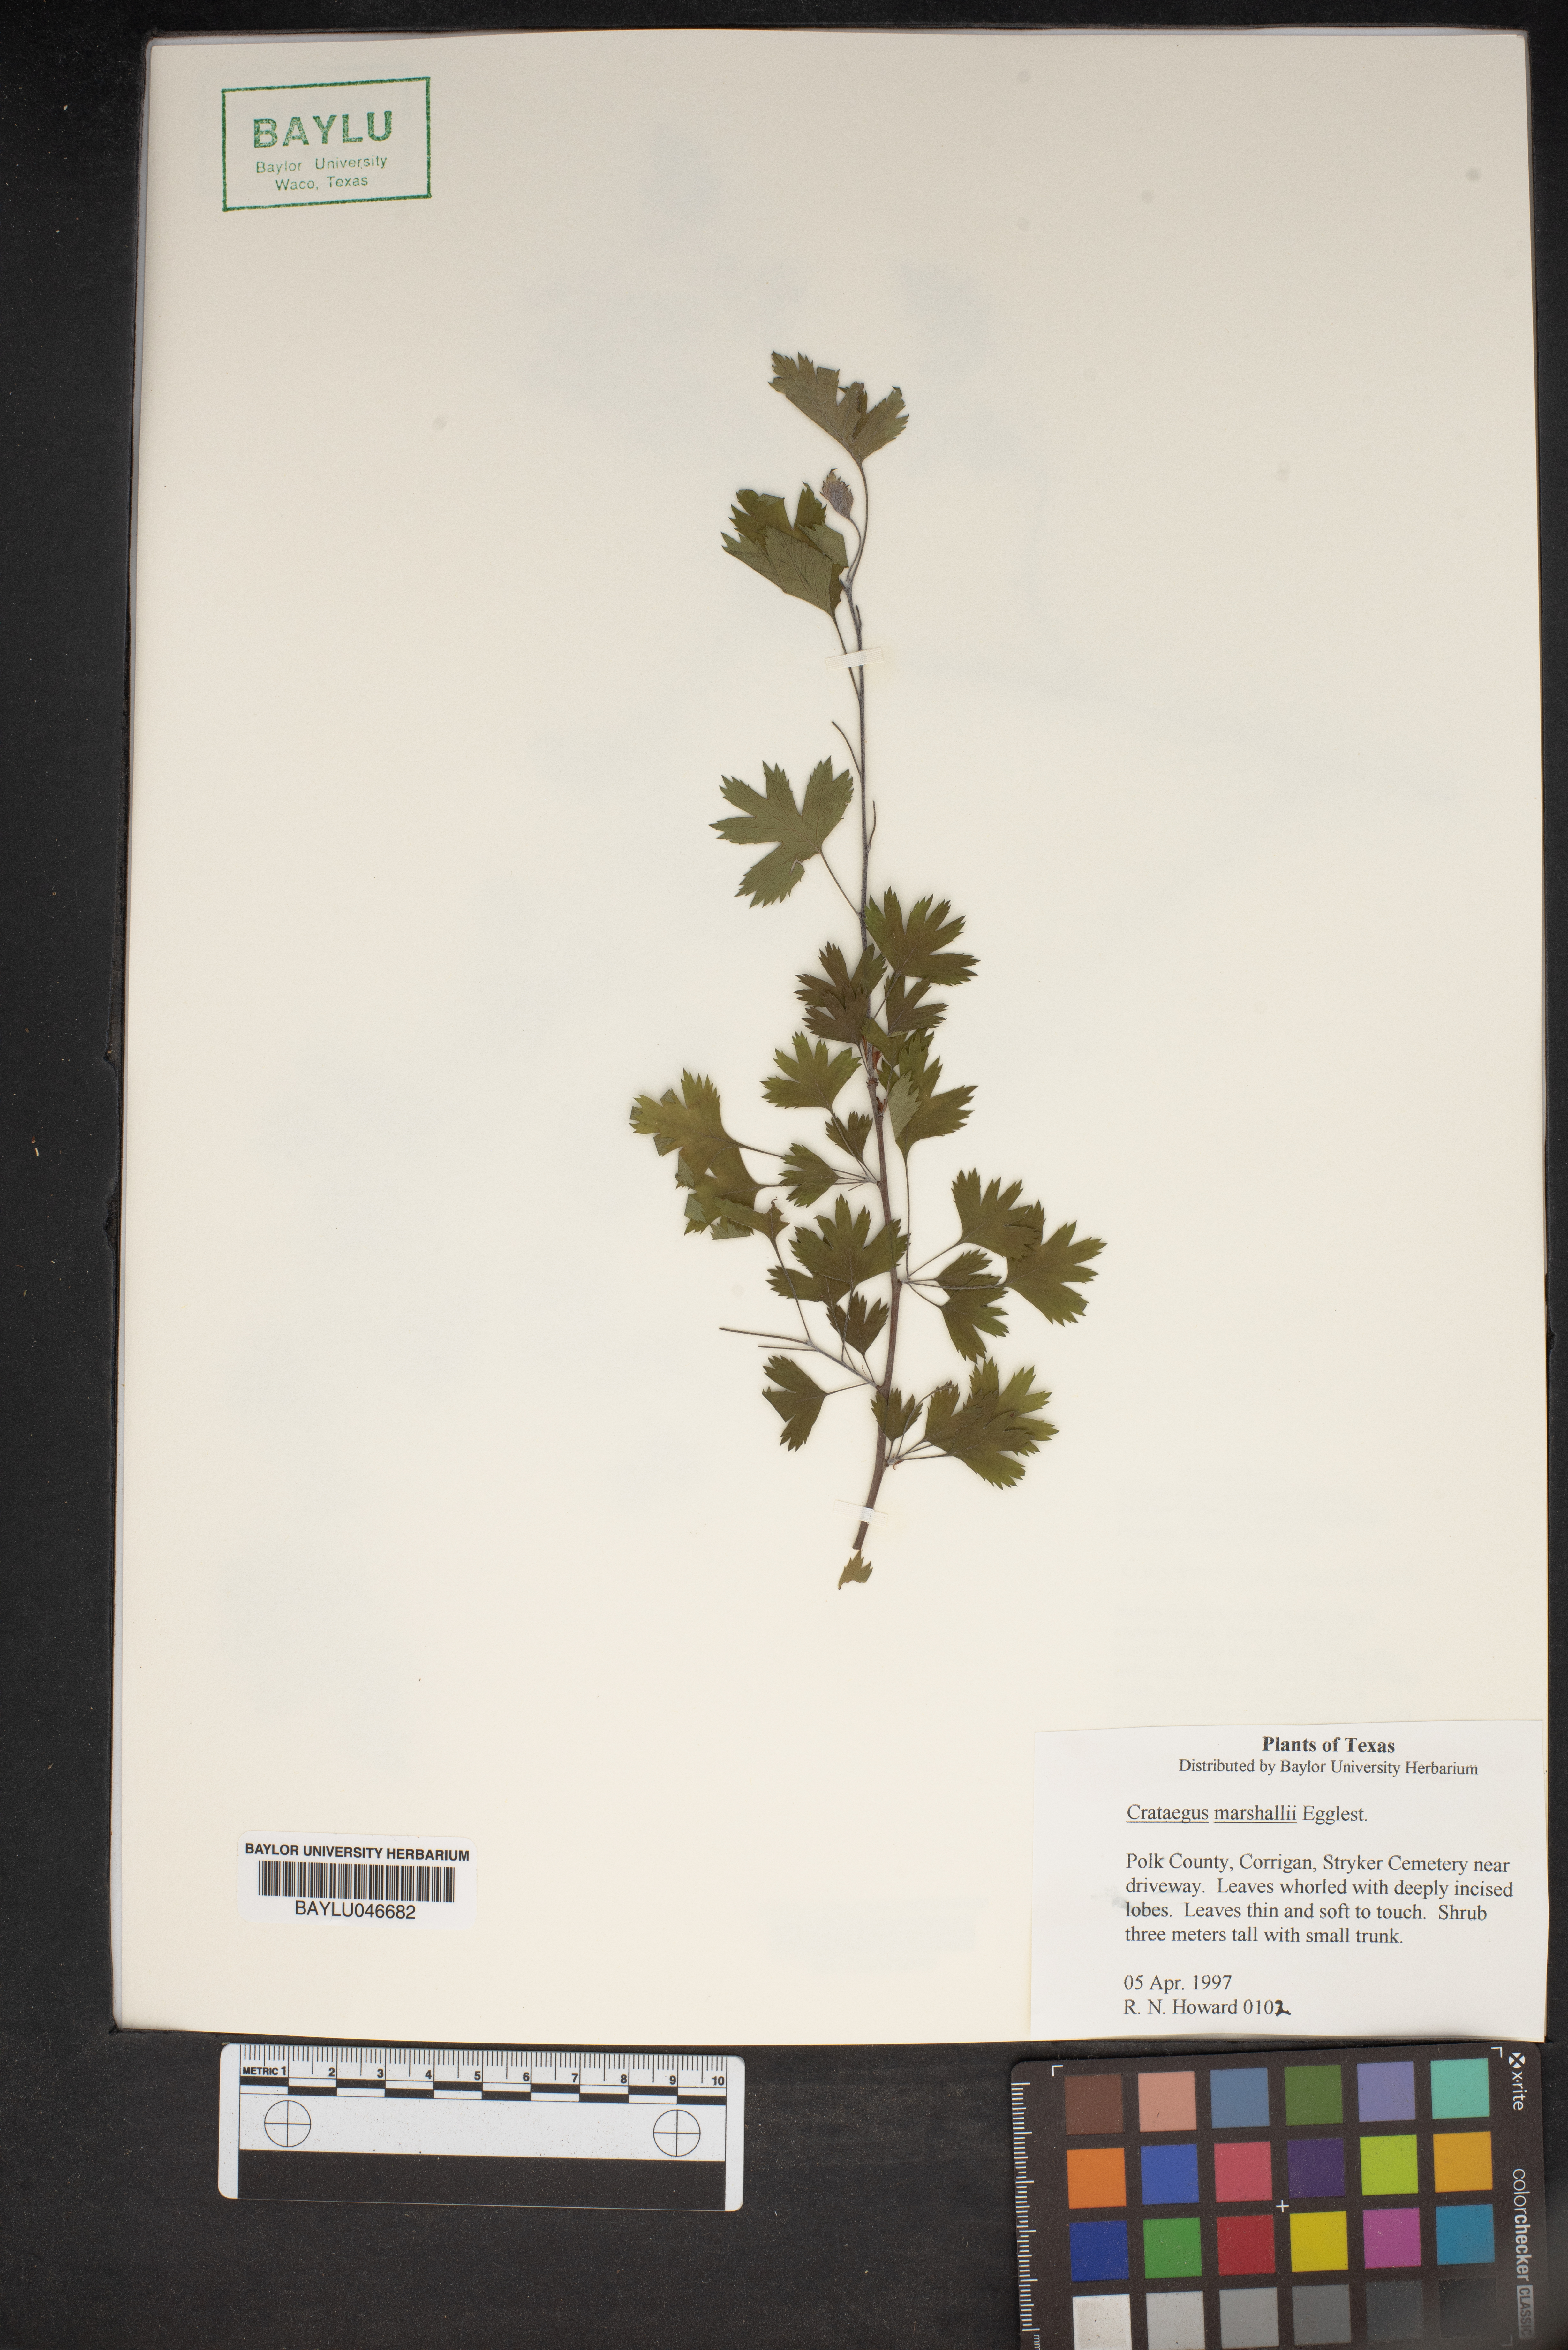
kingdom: Plantae
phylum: Tracheophyta
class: Magnoliopsida
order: Rosales
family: Rosaceae
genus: Crataegus
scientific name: Crataegus marshallii
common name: Parsley-hawthorn
